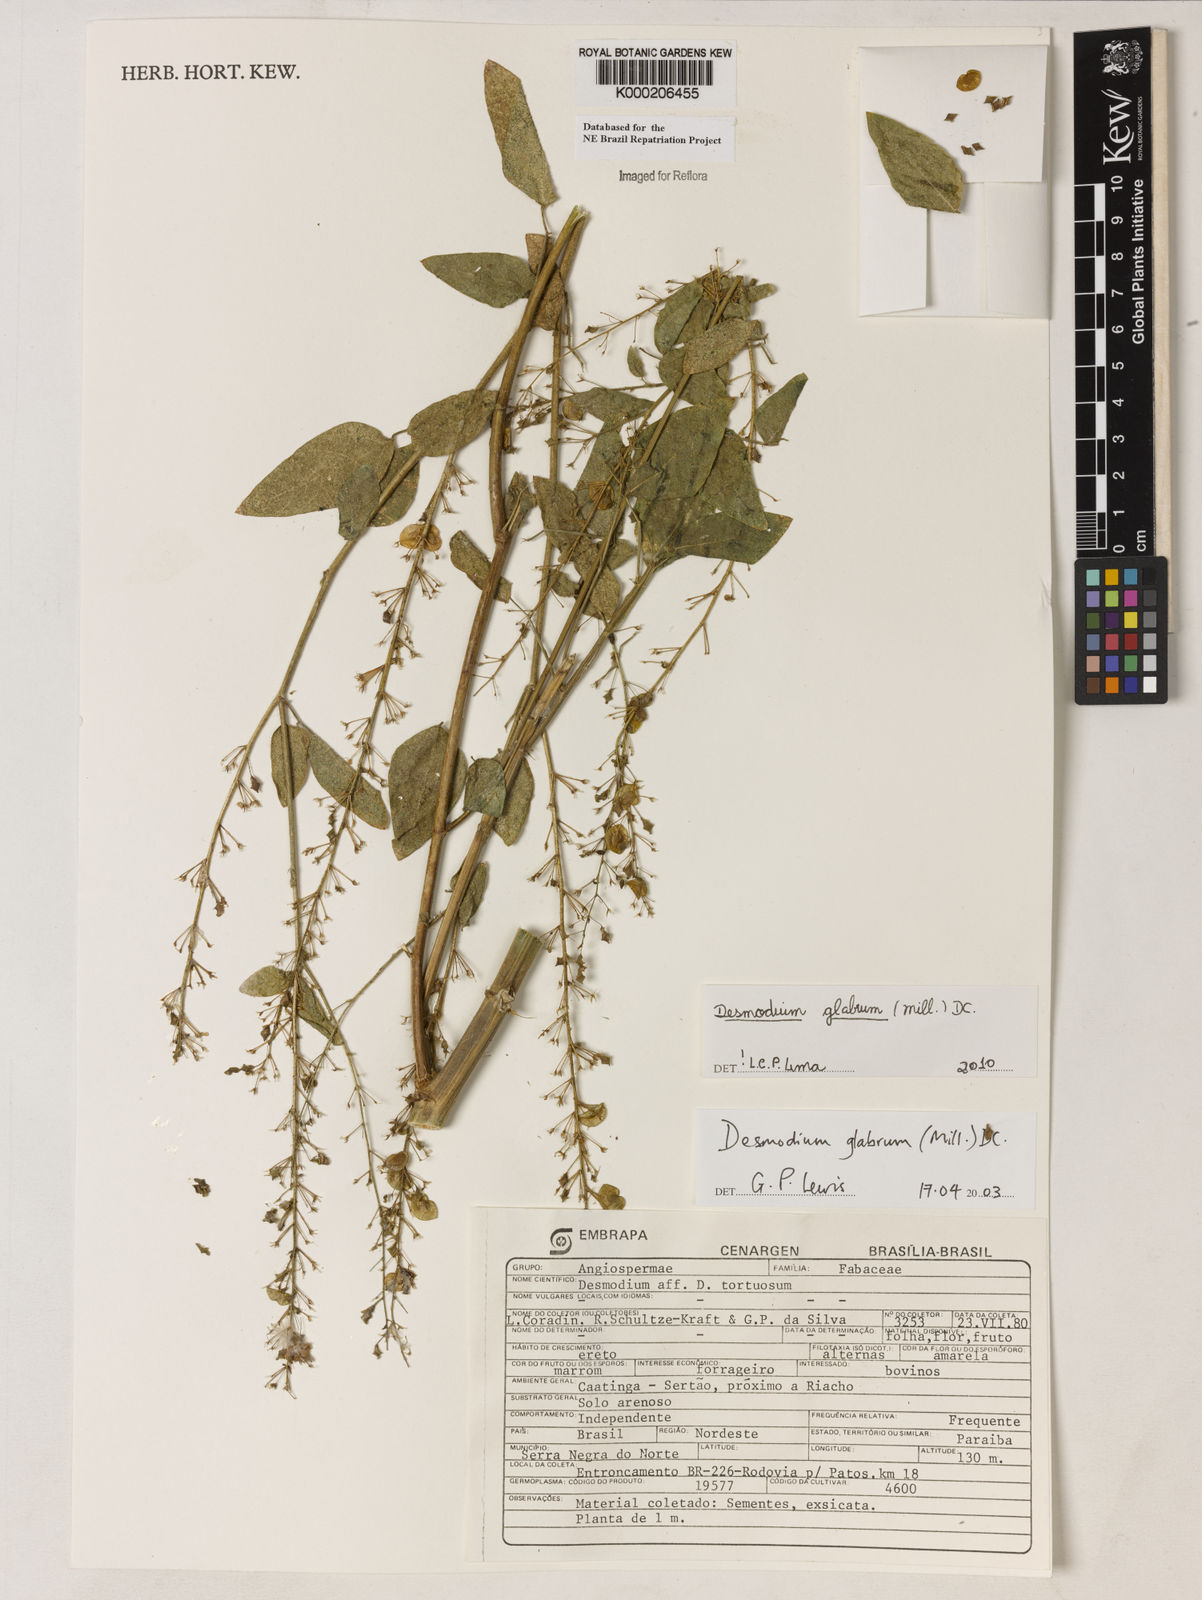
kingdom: Plantae
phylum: Tracheophyta
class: Magnoliopsida
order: Fabales
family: Fabaceae
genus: Desmodium
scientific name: Desmodium glabrum
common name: Zarzabacoa dulce
